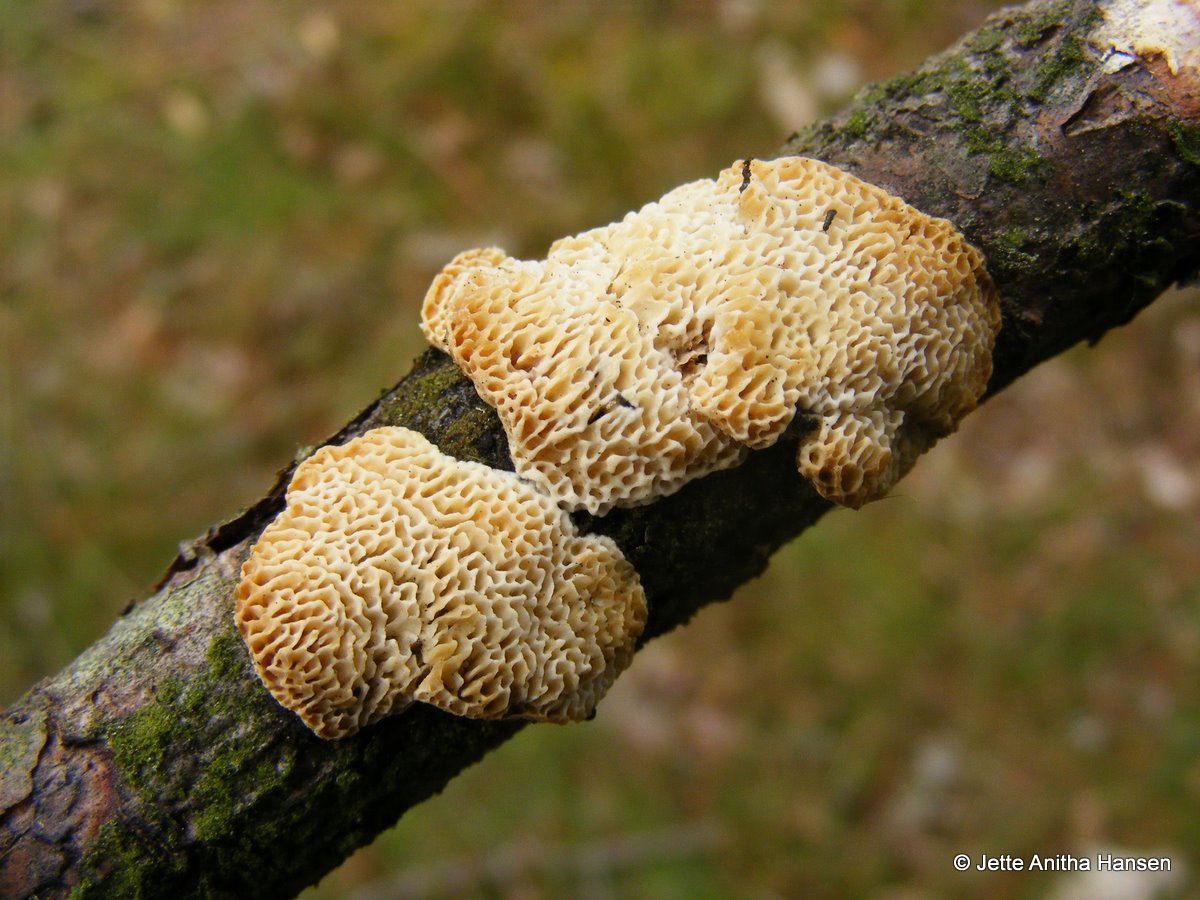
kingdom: Fungi
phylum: Basidiomycota
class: Agaricomycetes
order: Polyporales
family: Fomitopsidaceae
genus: Fomitopsis
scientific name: Fomitopsis
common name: fyrre-skiveporesvamp
